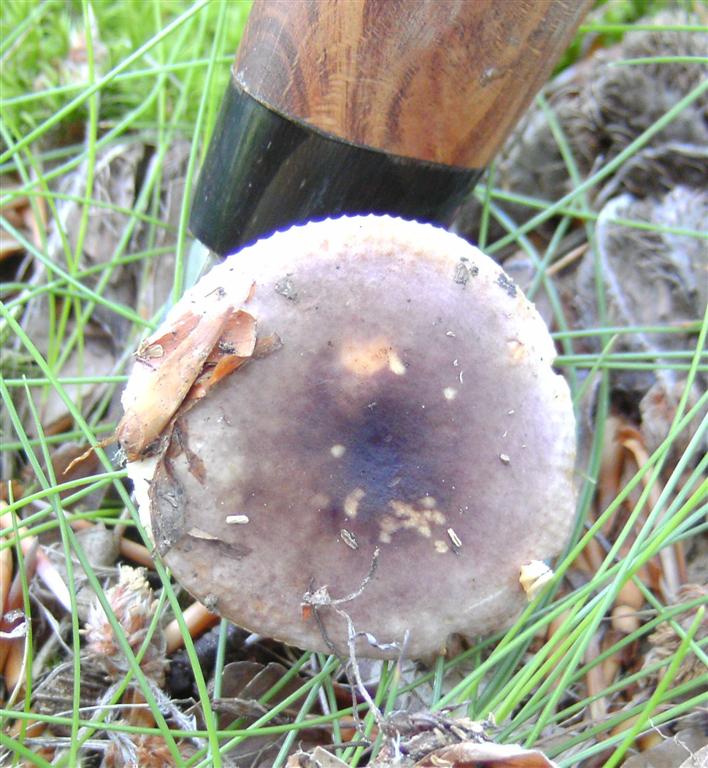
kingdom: Fungi
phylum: Basidiomycota
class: Agaricomycetes
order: Russulales
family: Russulaceae
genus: Russula
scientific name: Russula
